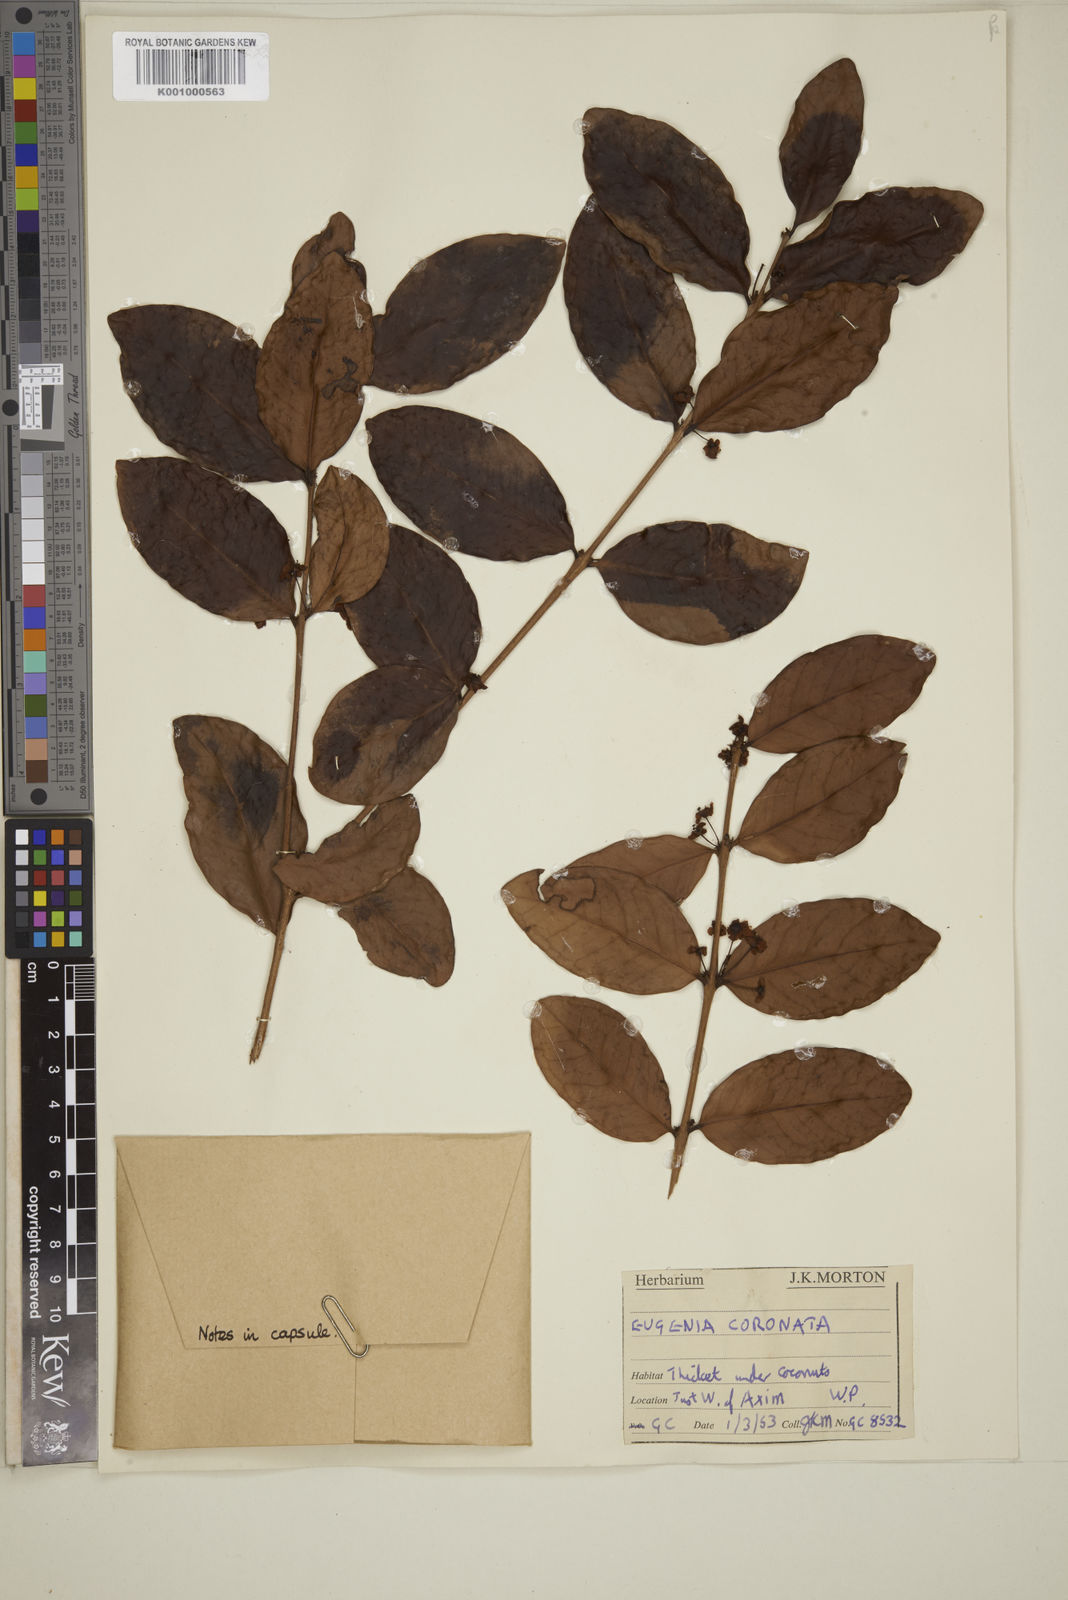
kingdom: Plantae
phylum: Tracheophyta
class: Magnoliopsida
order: Myrtales
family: Myrtaceae
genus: Eugenia
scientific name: Eugenia coronata
